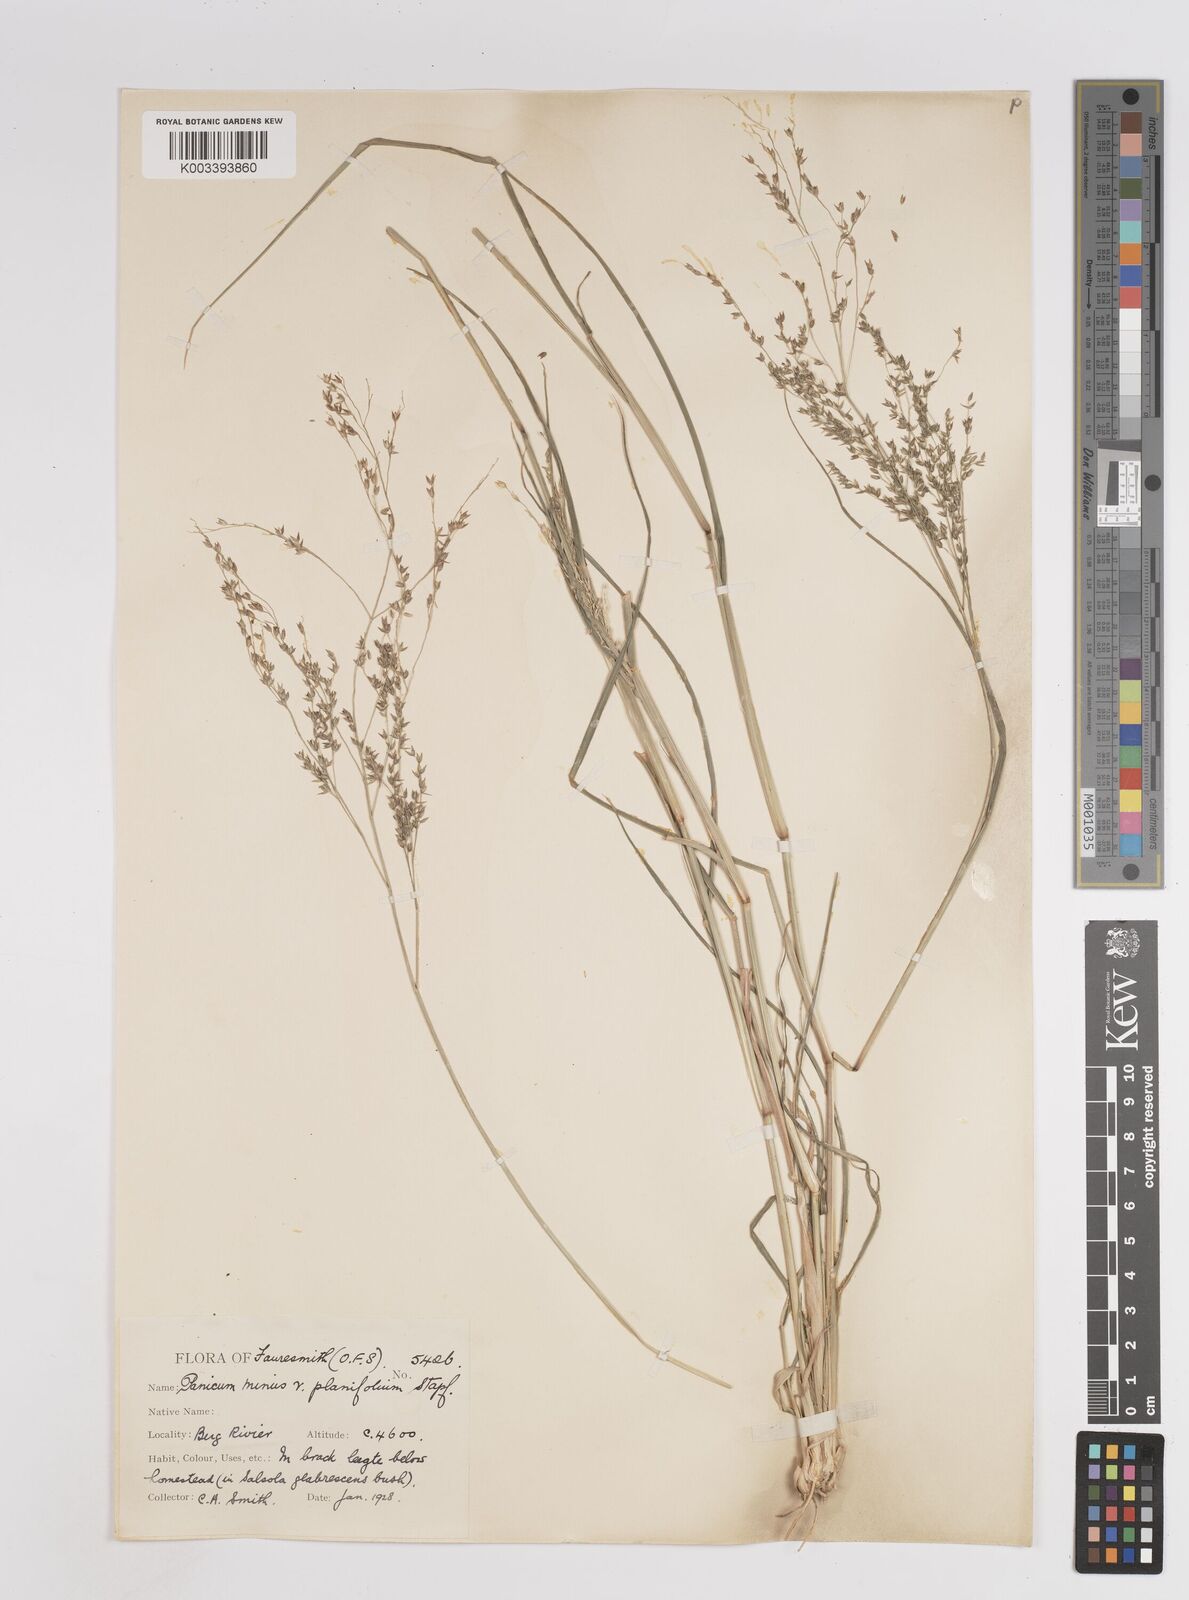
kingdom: Plantae
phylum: Tracheophyta
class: Liliopsida
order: Poales
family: Poaceae
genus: Panicum
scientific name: Panicum stapfianum
